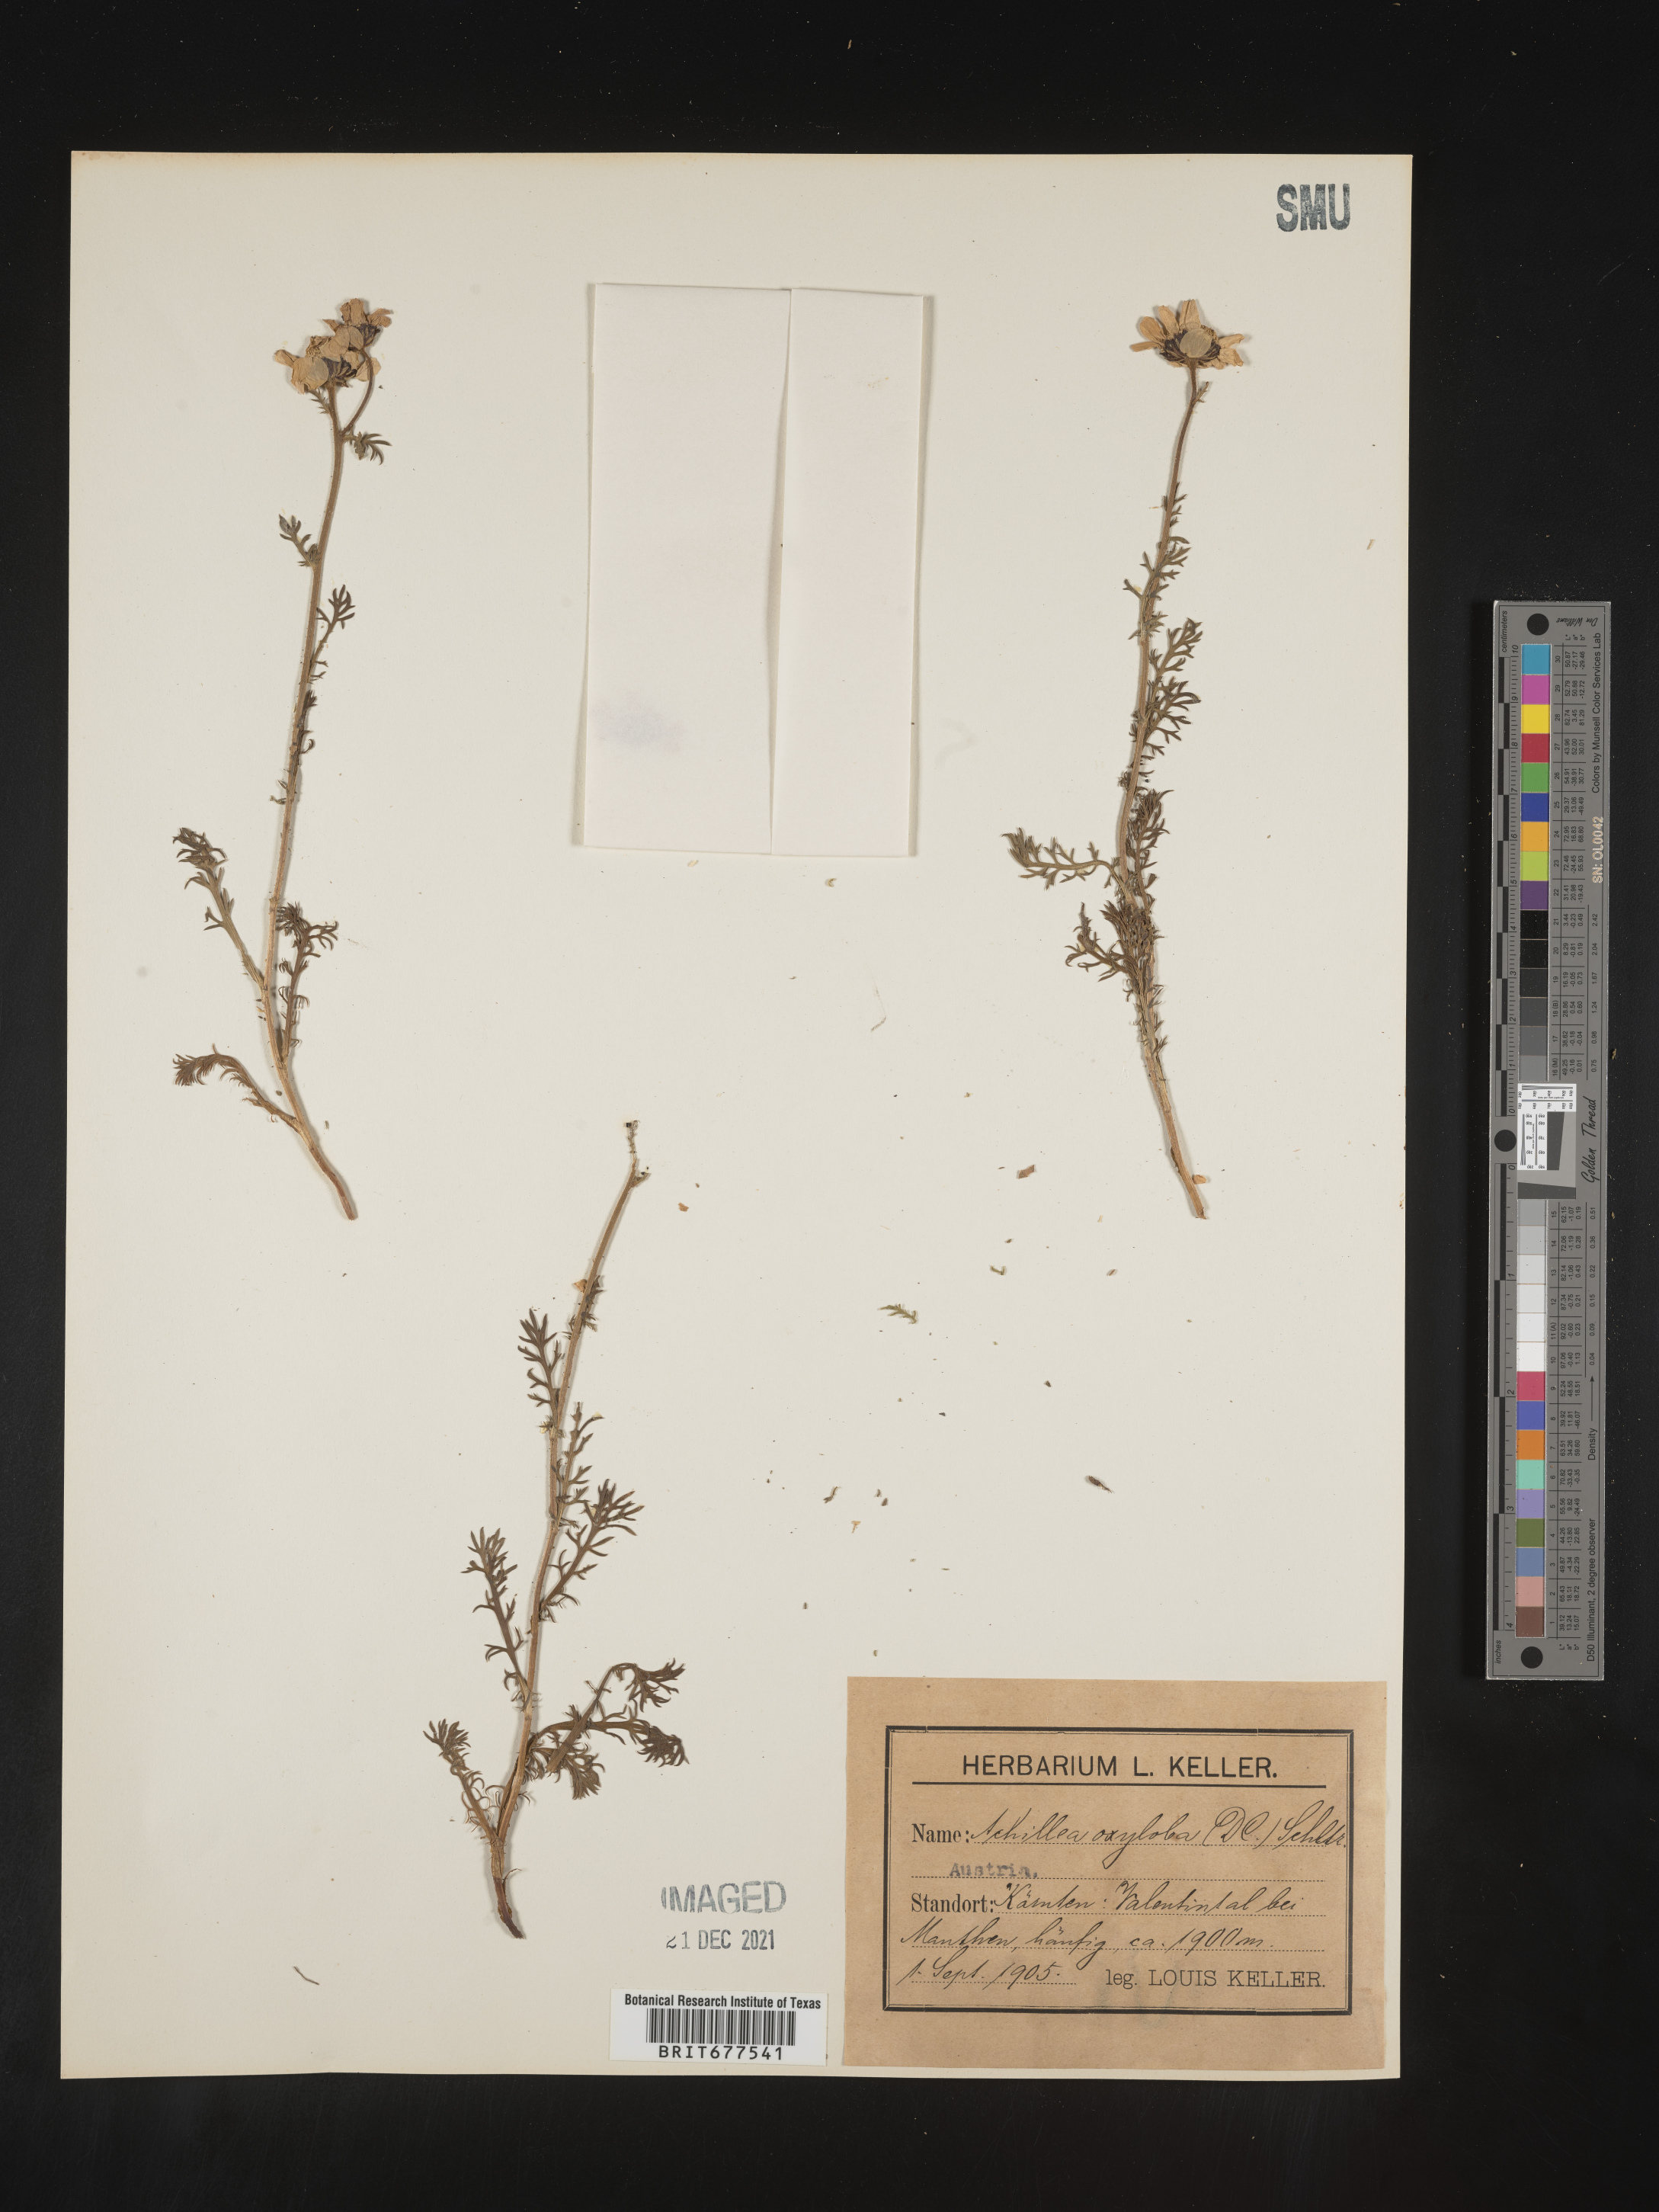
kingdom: Plantae
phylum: Tracheophyta
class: Magnoliopsida
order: Asterales
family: Asteraceae
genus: Achillea
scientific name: Achillea
